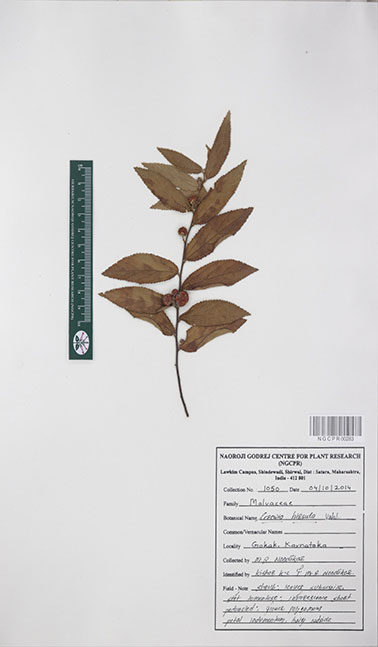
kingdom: Plantae
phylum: Tracheophyta
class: Magnoliopsida
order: Malvales
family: Malvaceae
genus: Grewia
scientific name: Grewia hirsuta
